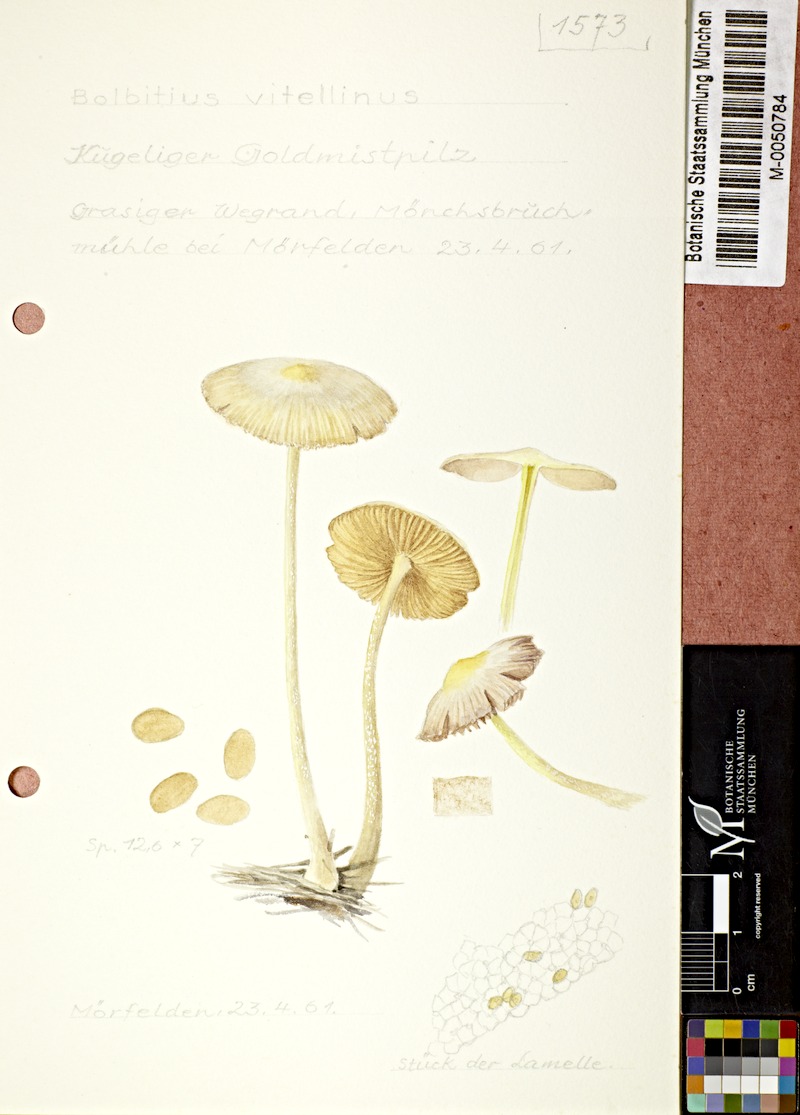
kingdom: Fungi
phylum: Basidiomycota
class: Agaricomycetes
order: Agaricales
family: Bolbitiaceae
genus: Bolbitius
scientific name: Bolbitius titubans
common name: Yellow fieldcap
